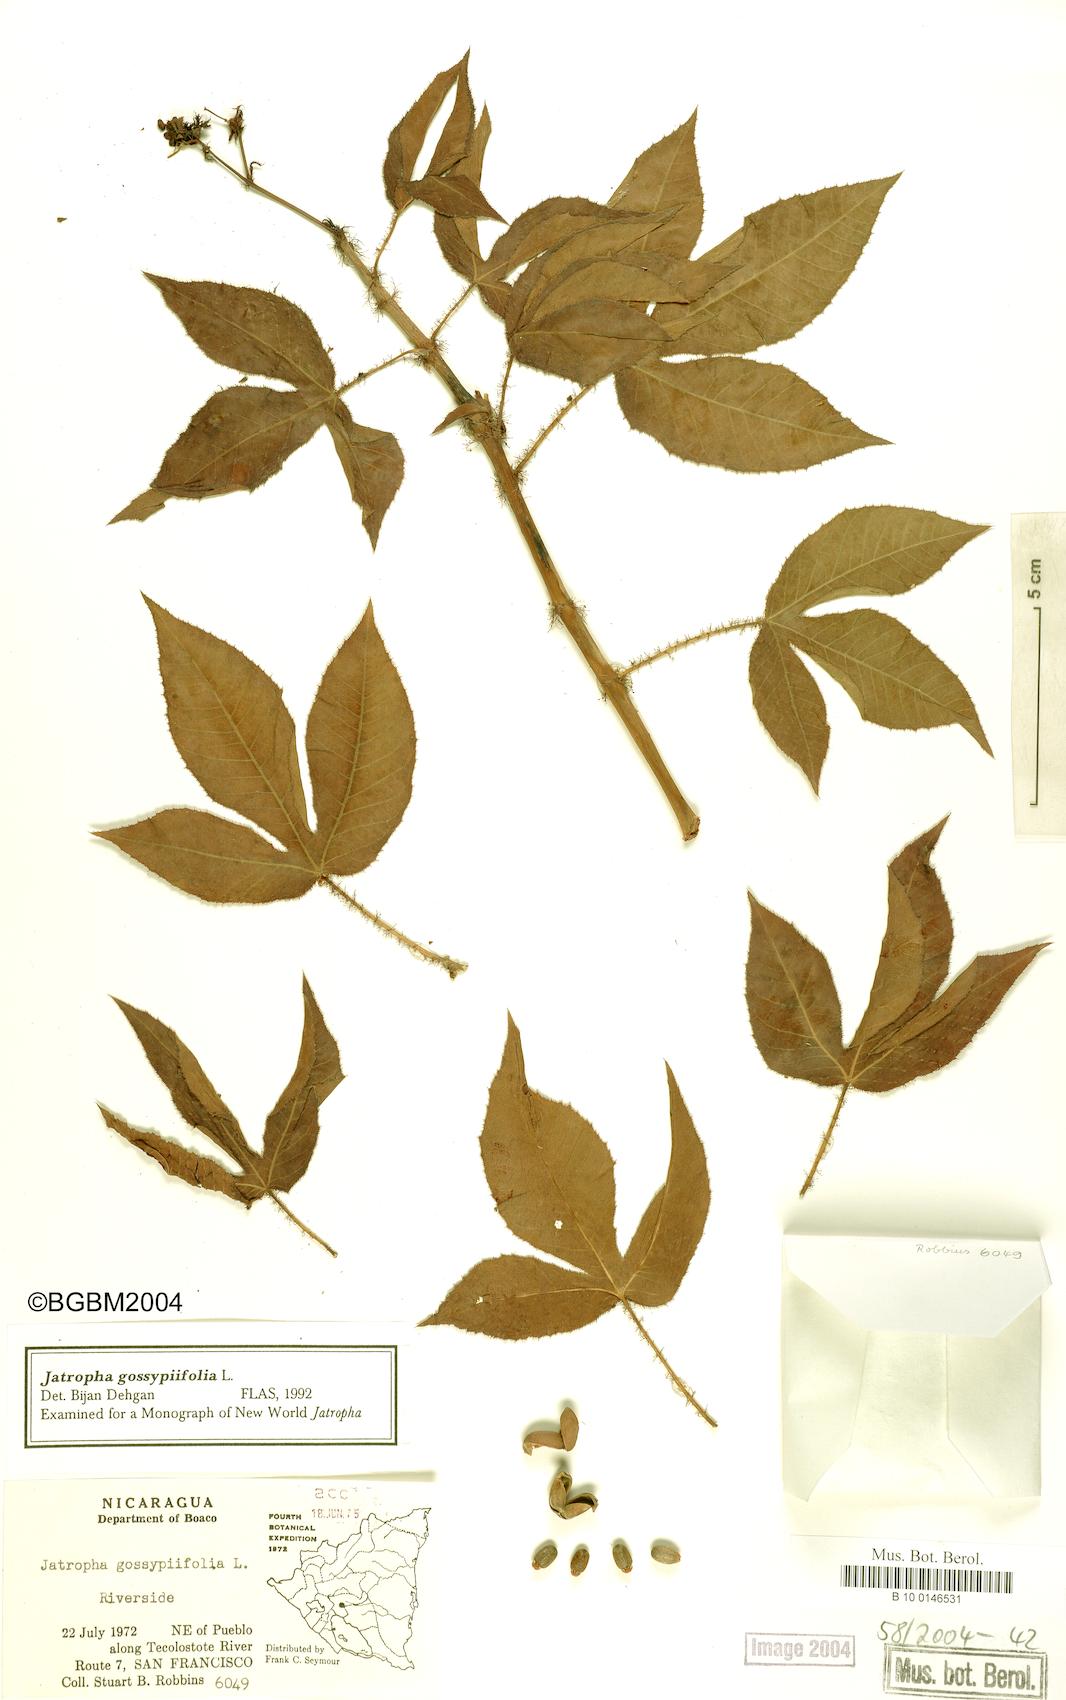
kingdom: Plantae
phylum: Tracheophyta
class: Magnoliopsida
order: Malpighiales
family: Euphorbiaceae
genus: Jatropha
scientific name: Jatropha gossypiifolia
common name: Bellyache bush
